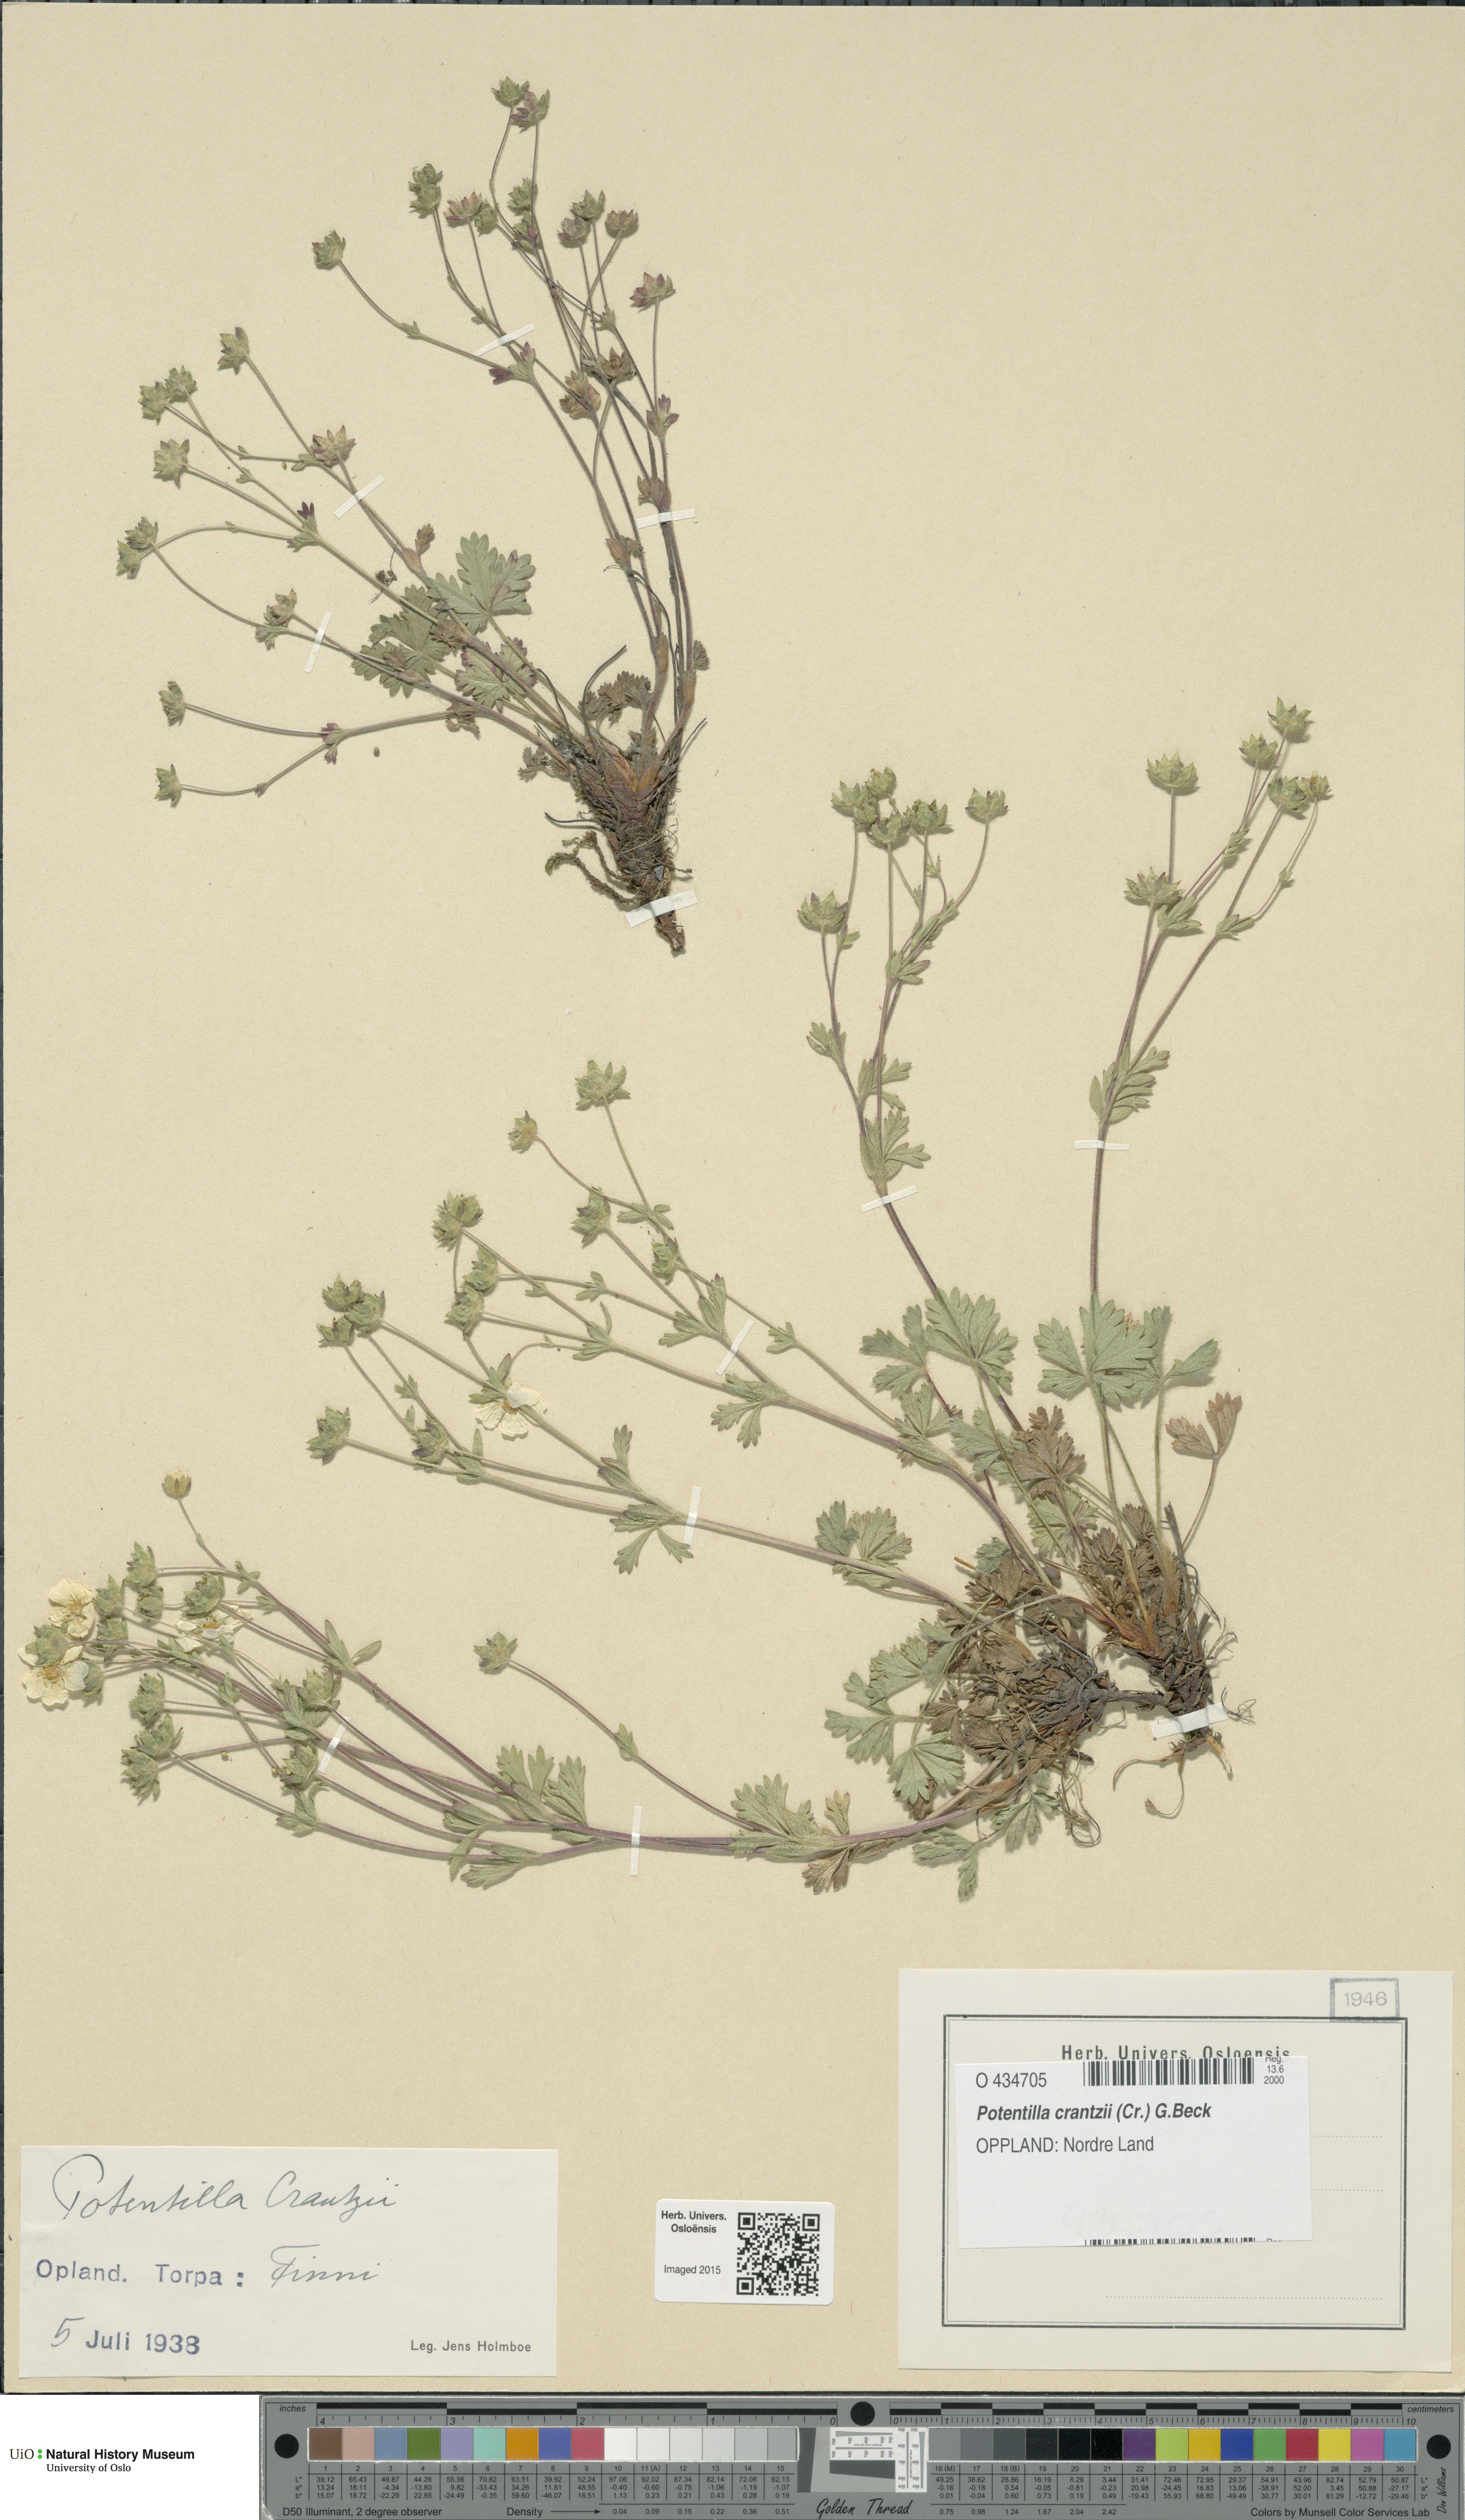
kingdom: Plantae
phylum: Tracheophyta
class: Magnoliopsida
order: Rosales
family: Rosaceae
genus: Potentilla
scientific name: Potentilla crantzii
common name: Alpine cinquefoil
